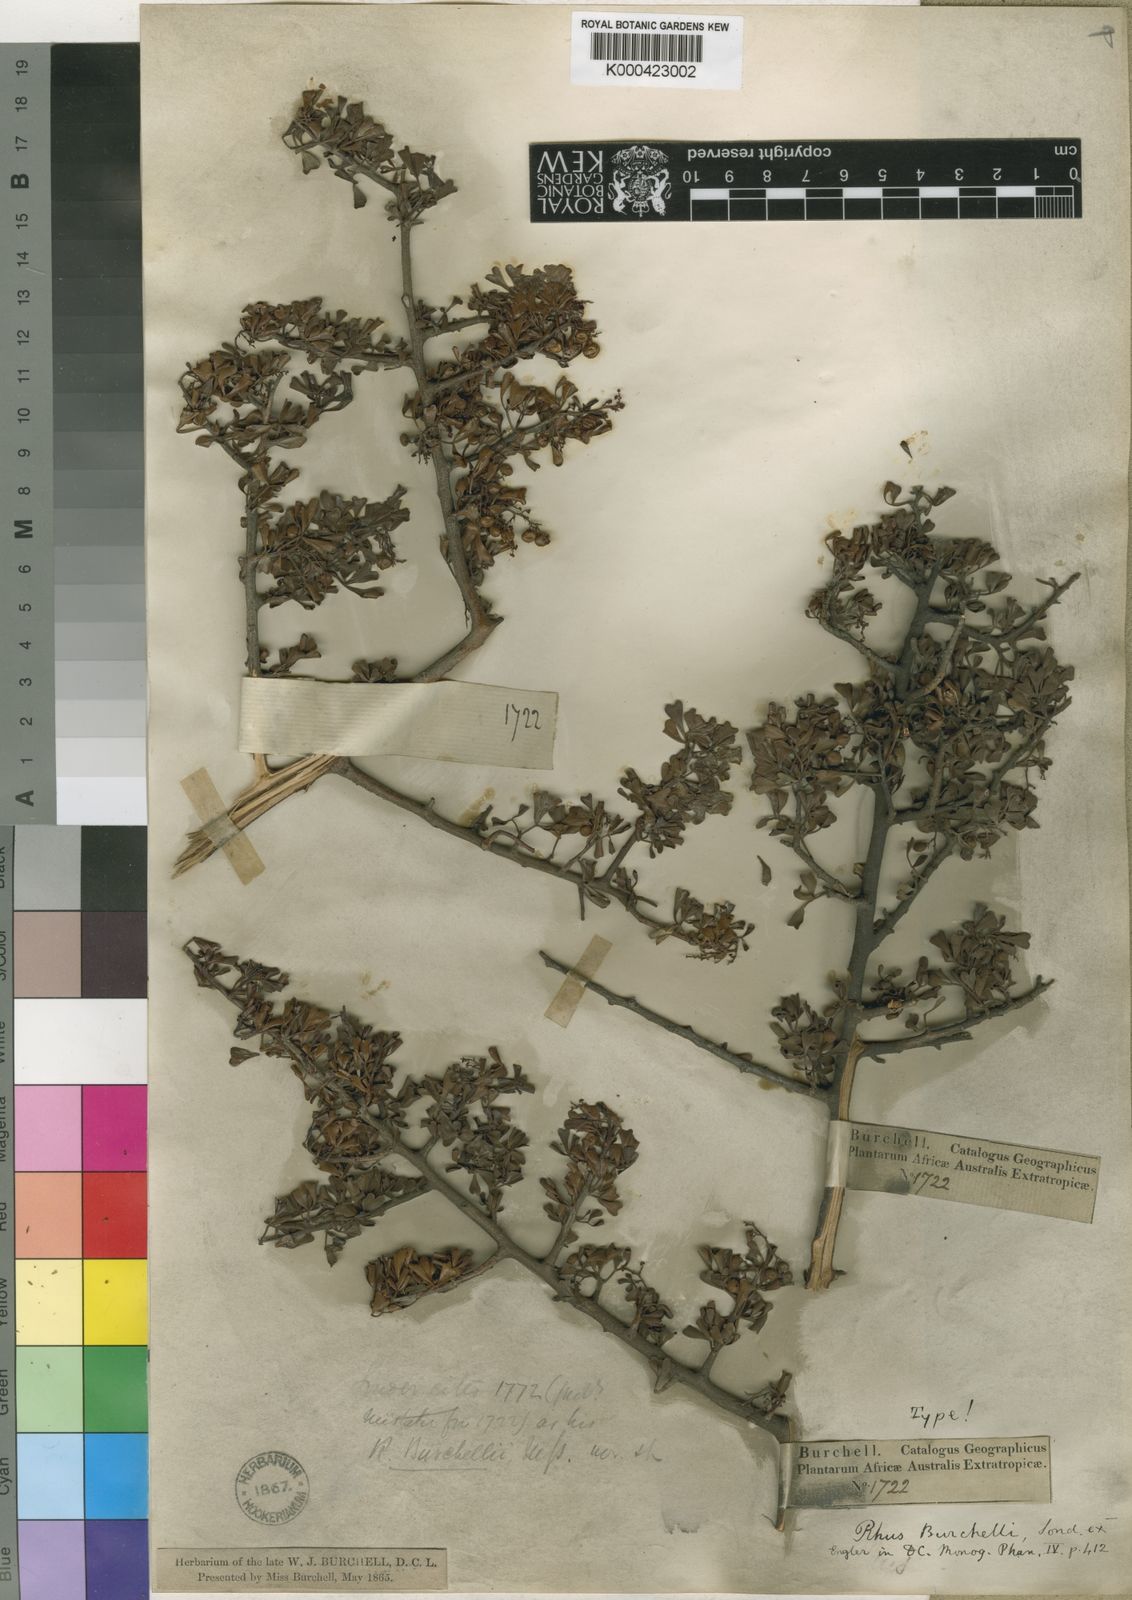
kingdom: Plantae
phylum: Tracheophyta
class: Magnoliopsida
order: Sapindales
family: Anacardiaceae
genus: Searsia
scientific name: Searsia undulata
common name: Namaqua kunibush
